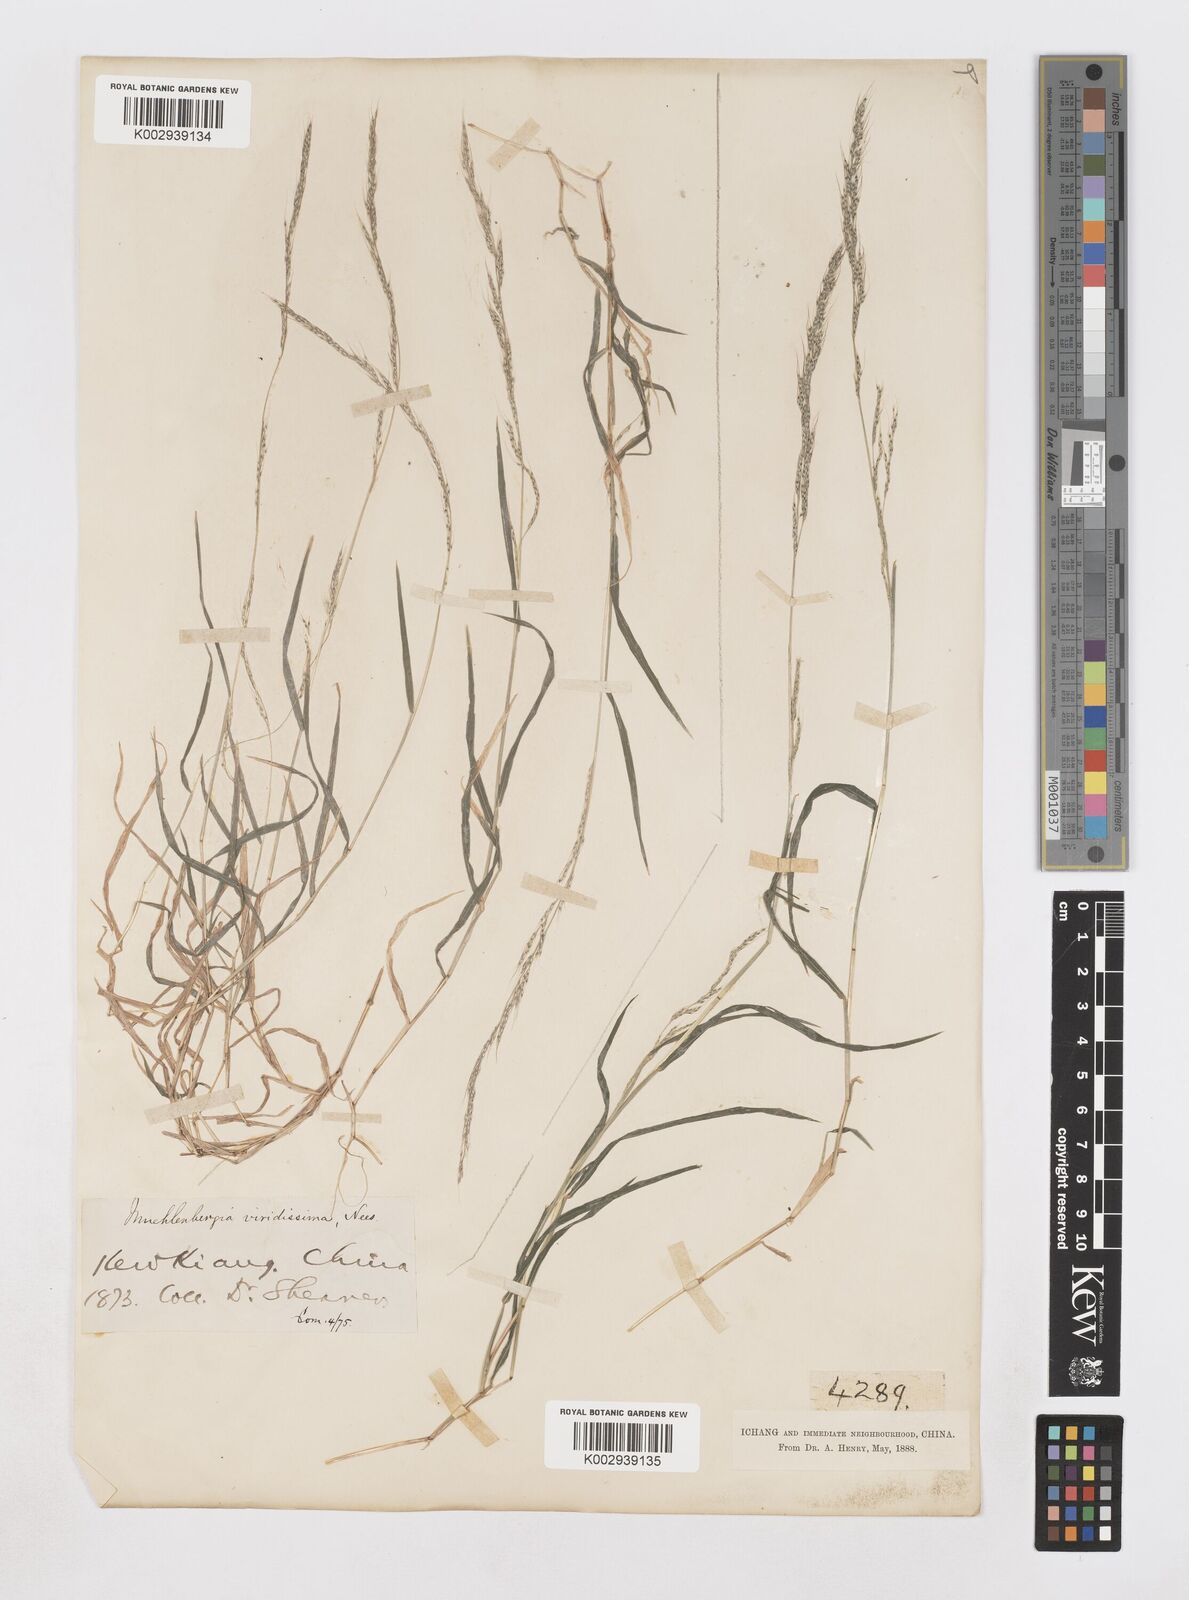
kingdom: Plantae
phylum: Tracheophyta
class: Liliopsida
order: Poales
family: Poaceae
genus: Muhlenbergia
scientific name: Muhlenbergia ramosa
